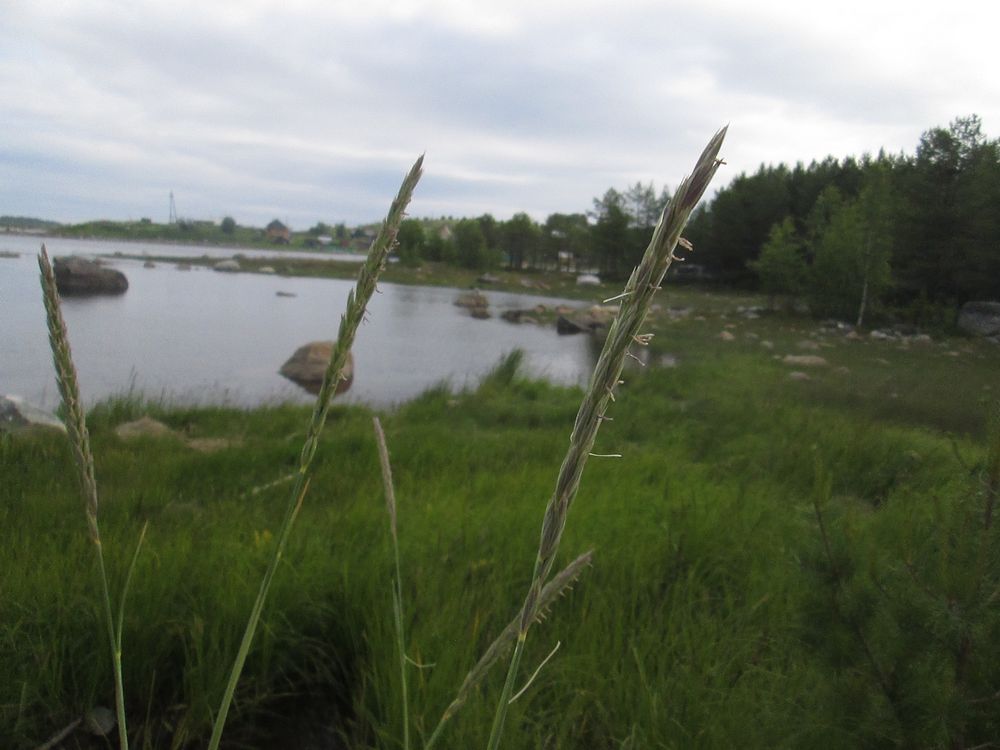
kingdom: Plantae
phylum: Tracheophyta
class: Liliopsida
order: Poales
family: Poaceae
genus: Leymus
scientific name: Leymus arenarius
